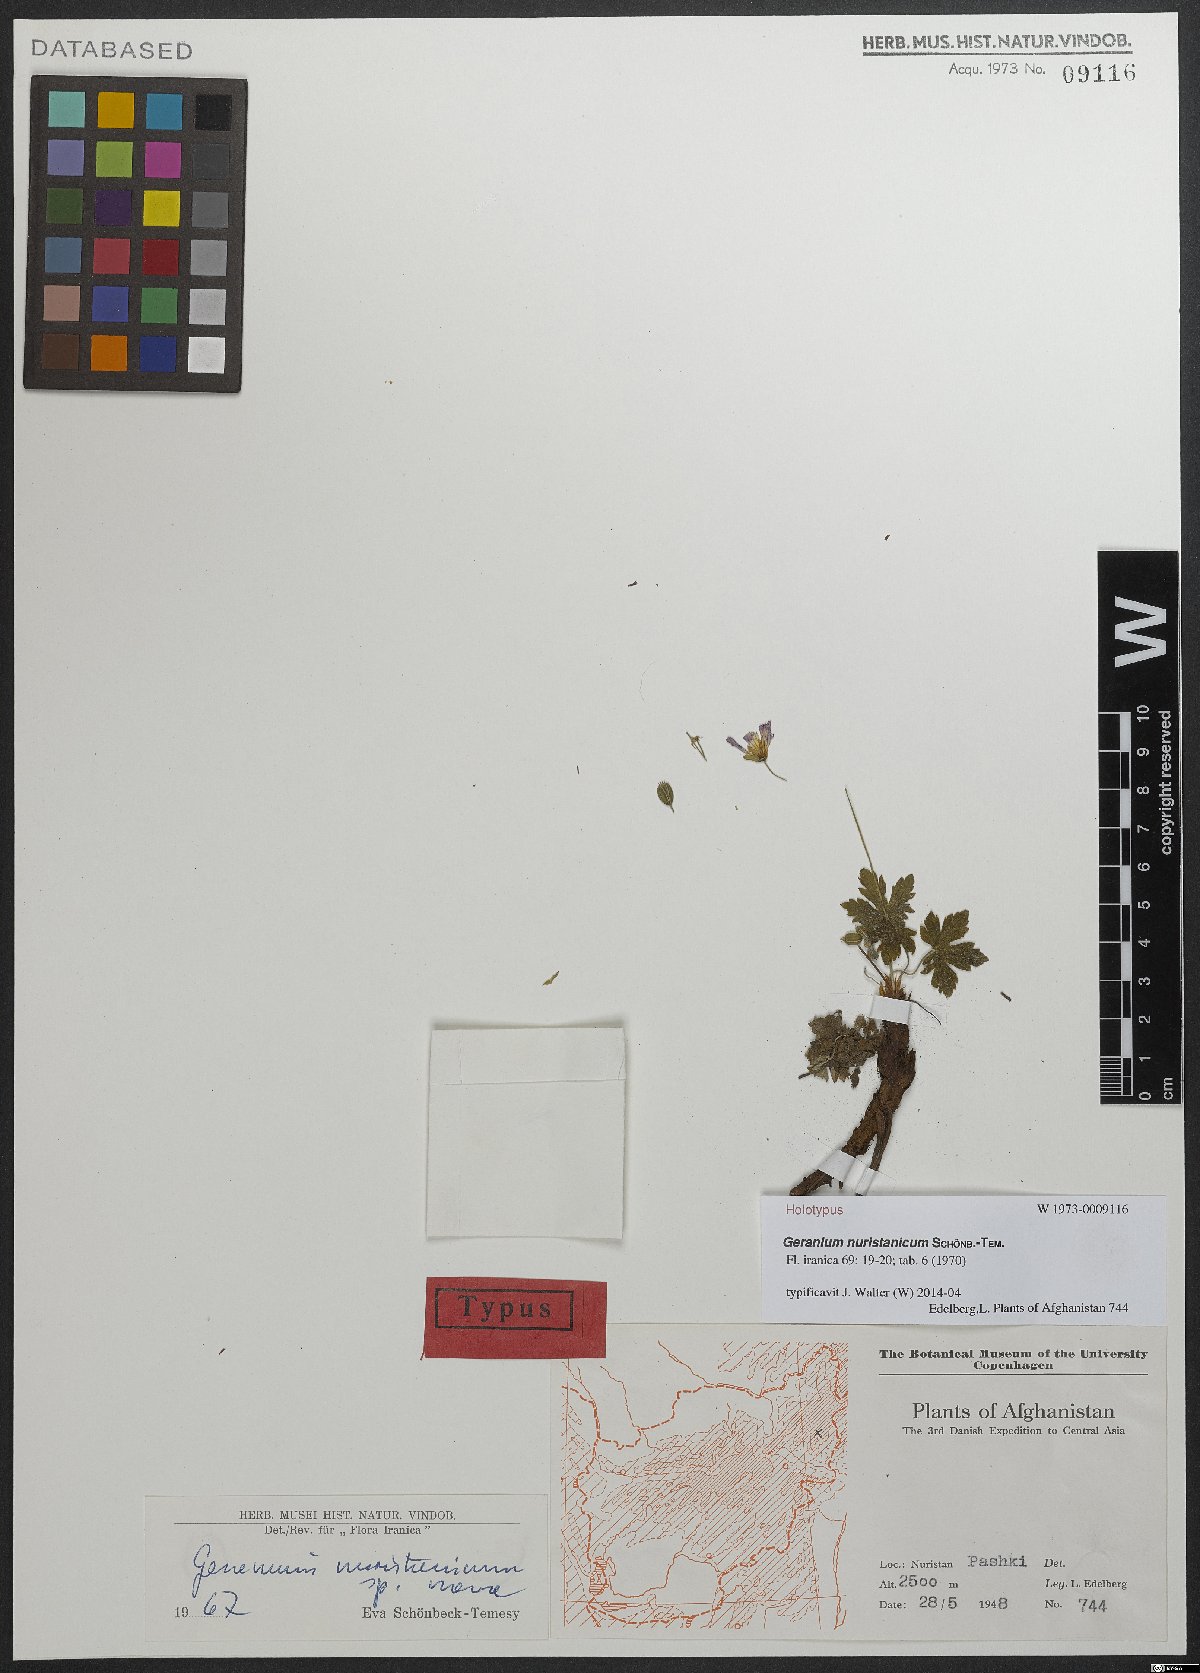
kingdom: Plantae
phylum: Tracheophyta
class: Magnoliopsida
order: Geraniales
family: Geraniaceae
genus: Geranium
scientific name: Geranium collinum
